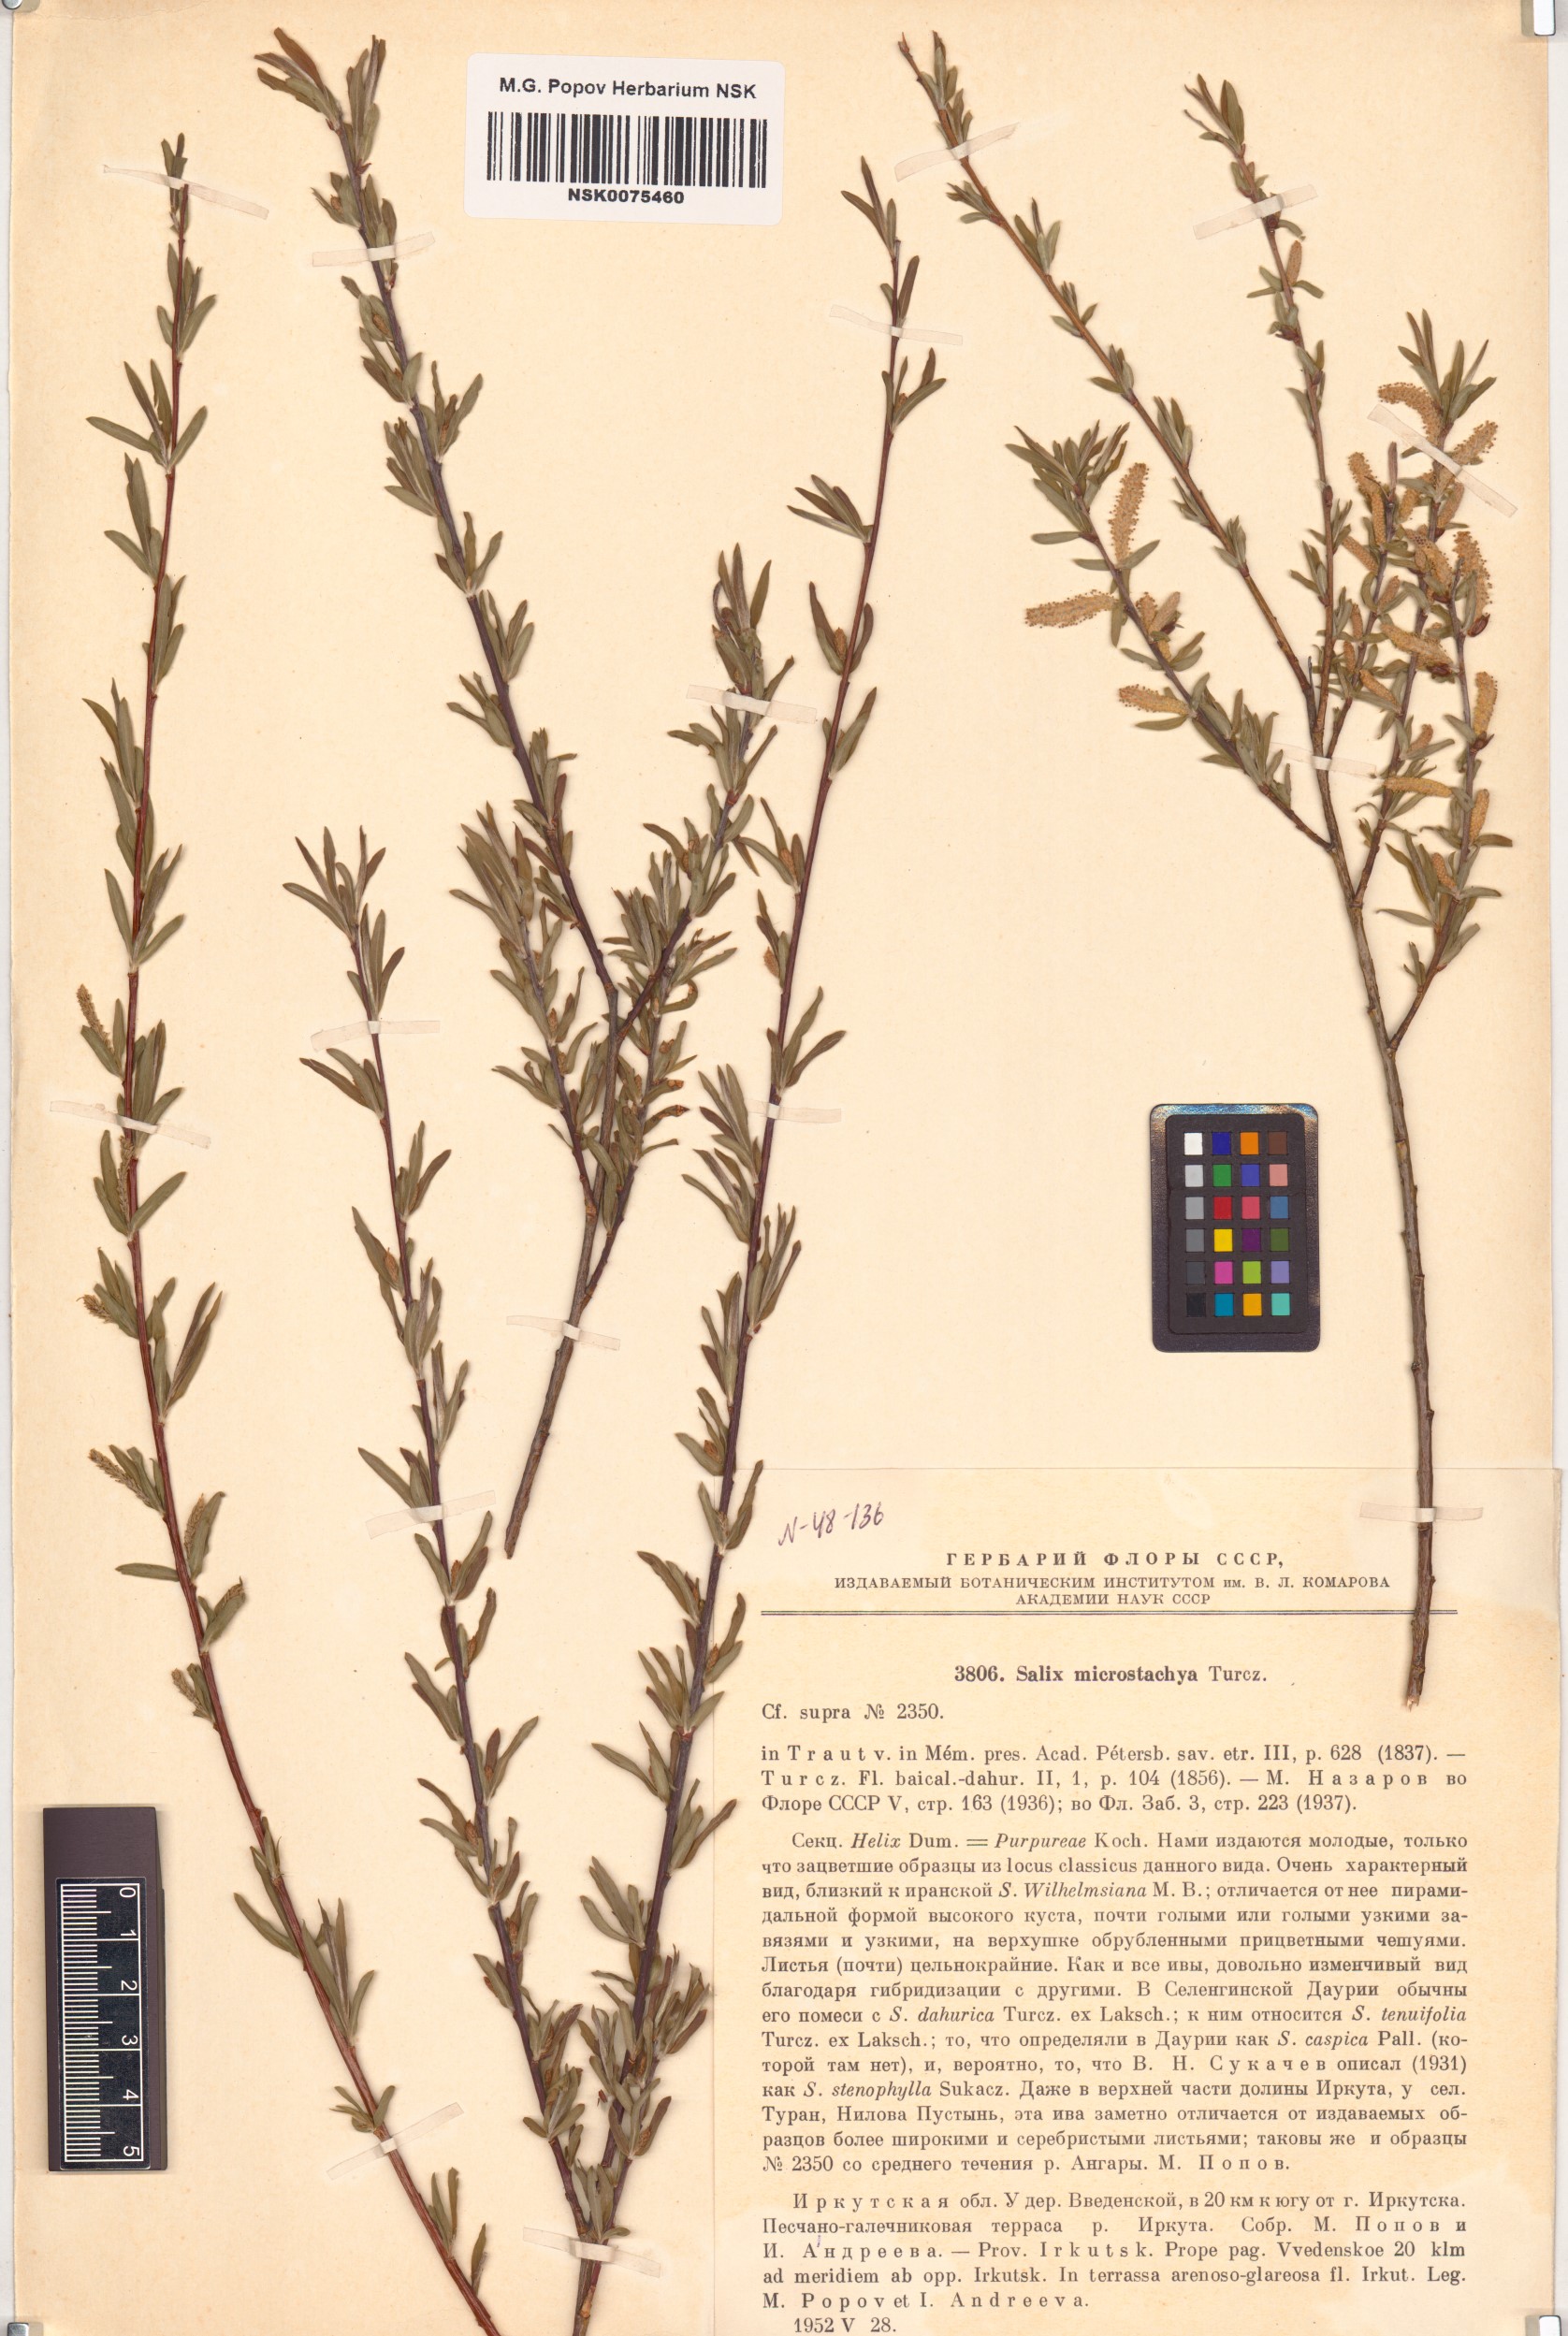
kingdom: Plantae
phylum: Tracheophyta
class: Magnoliopsida
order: Malpighiales
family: Salicaceae
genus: Salix
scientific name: Salix microstachya
